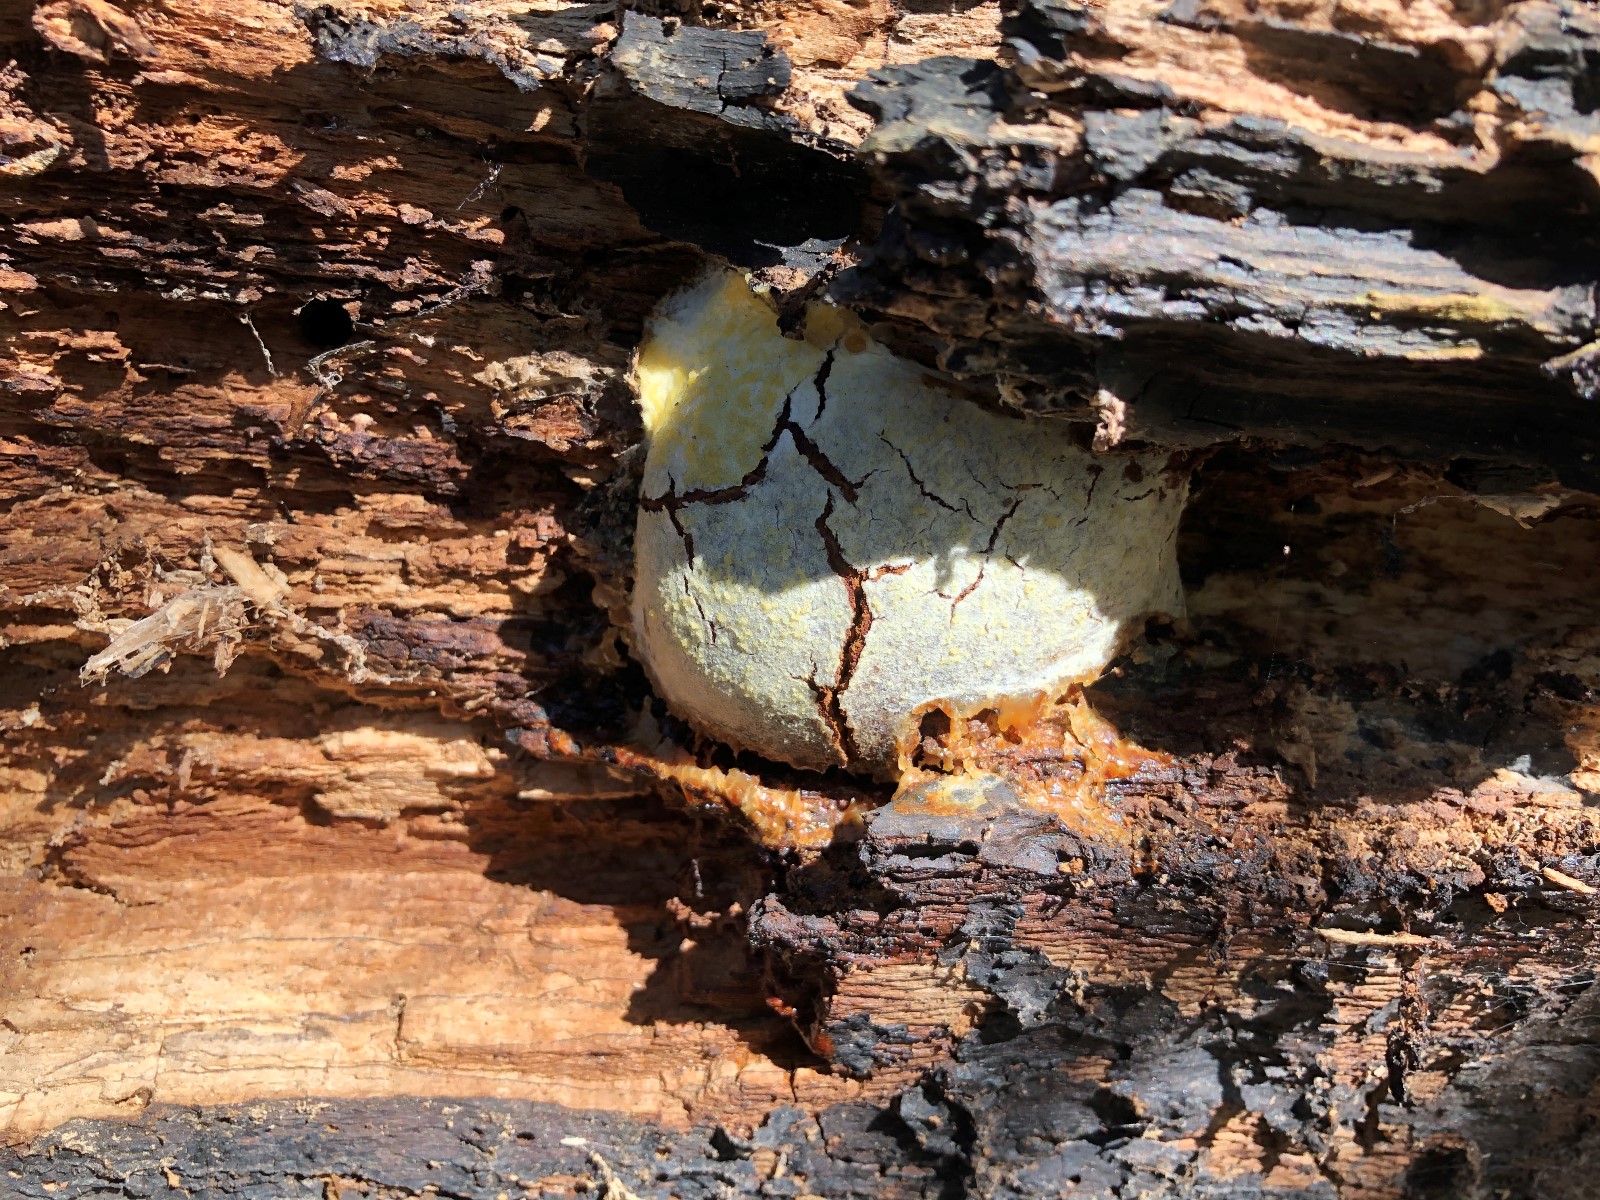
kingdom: Protozoa
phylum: Mycetozoa
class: Myxomycetes
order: Cribrariales
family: Tubiferaceae
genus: Reticularia
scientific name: Reticularia lycoperdon
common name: skinnende støvpude
